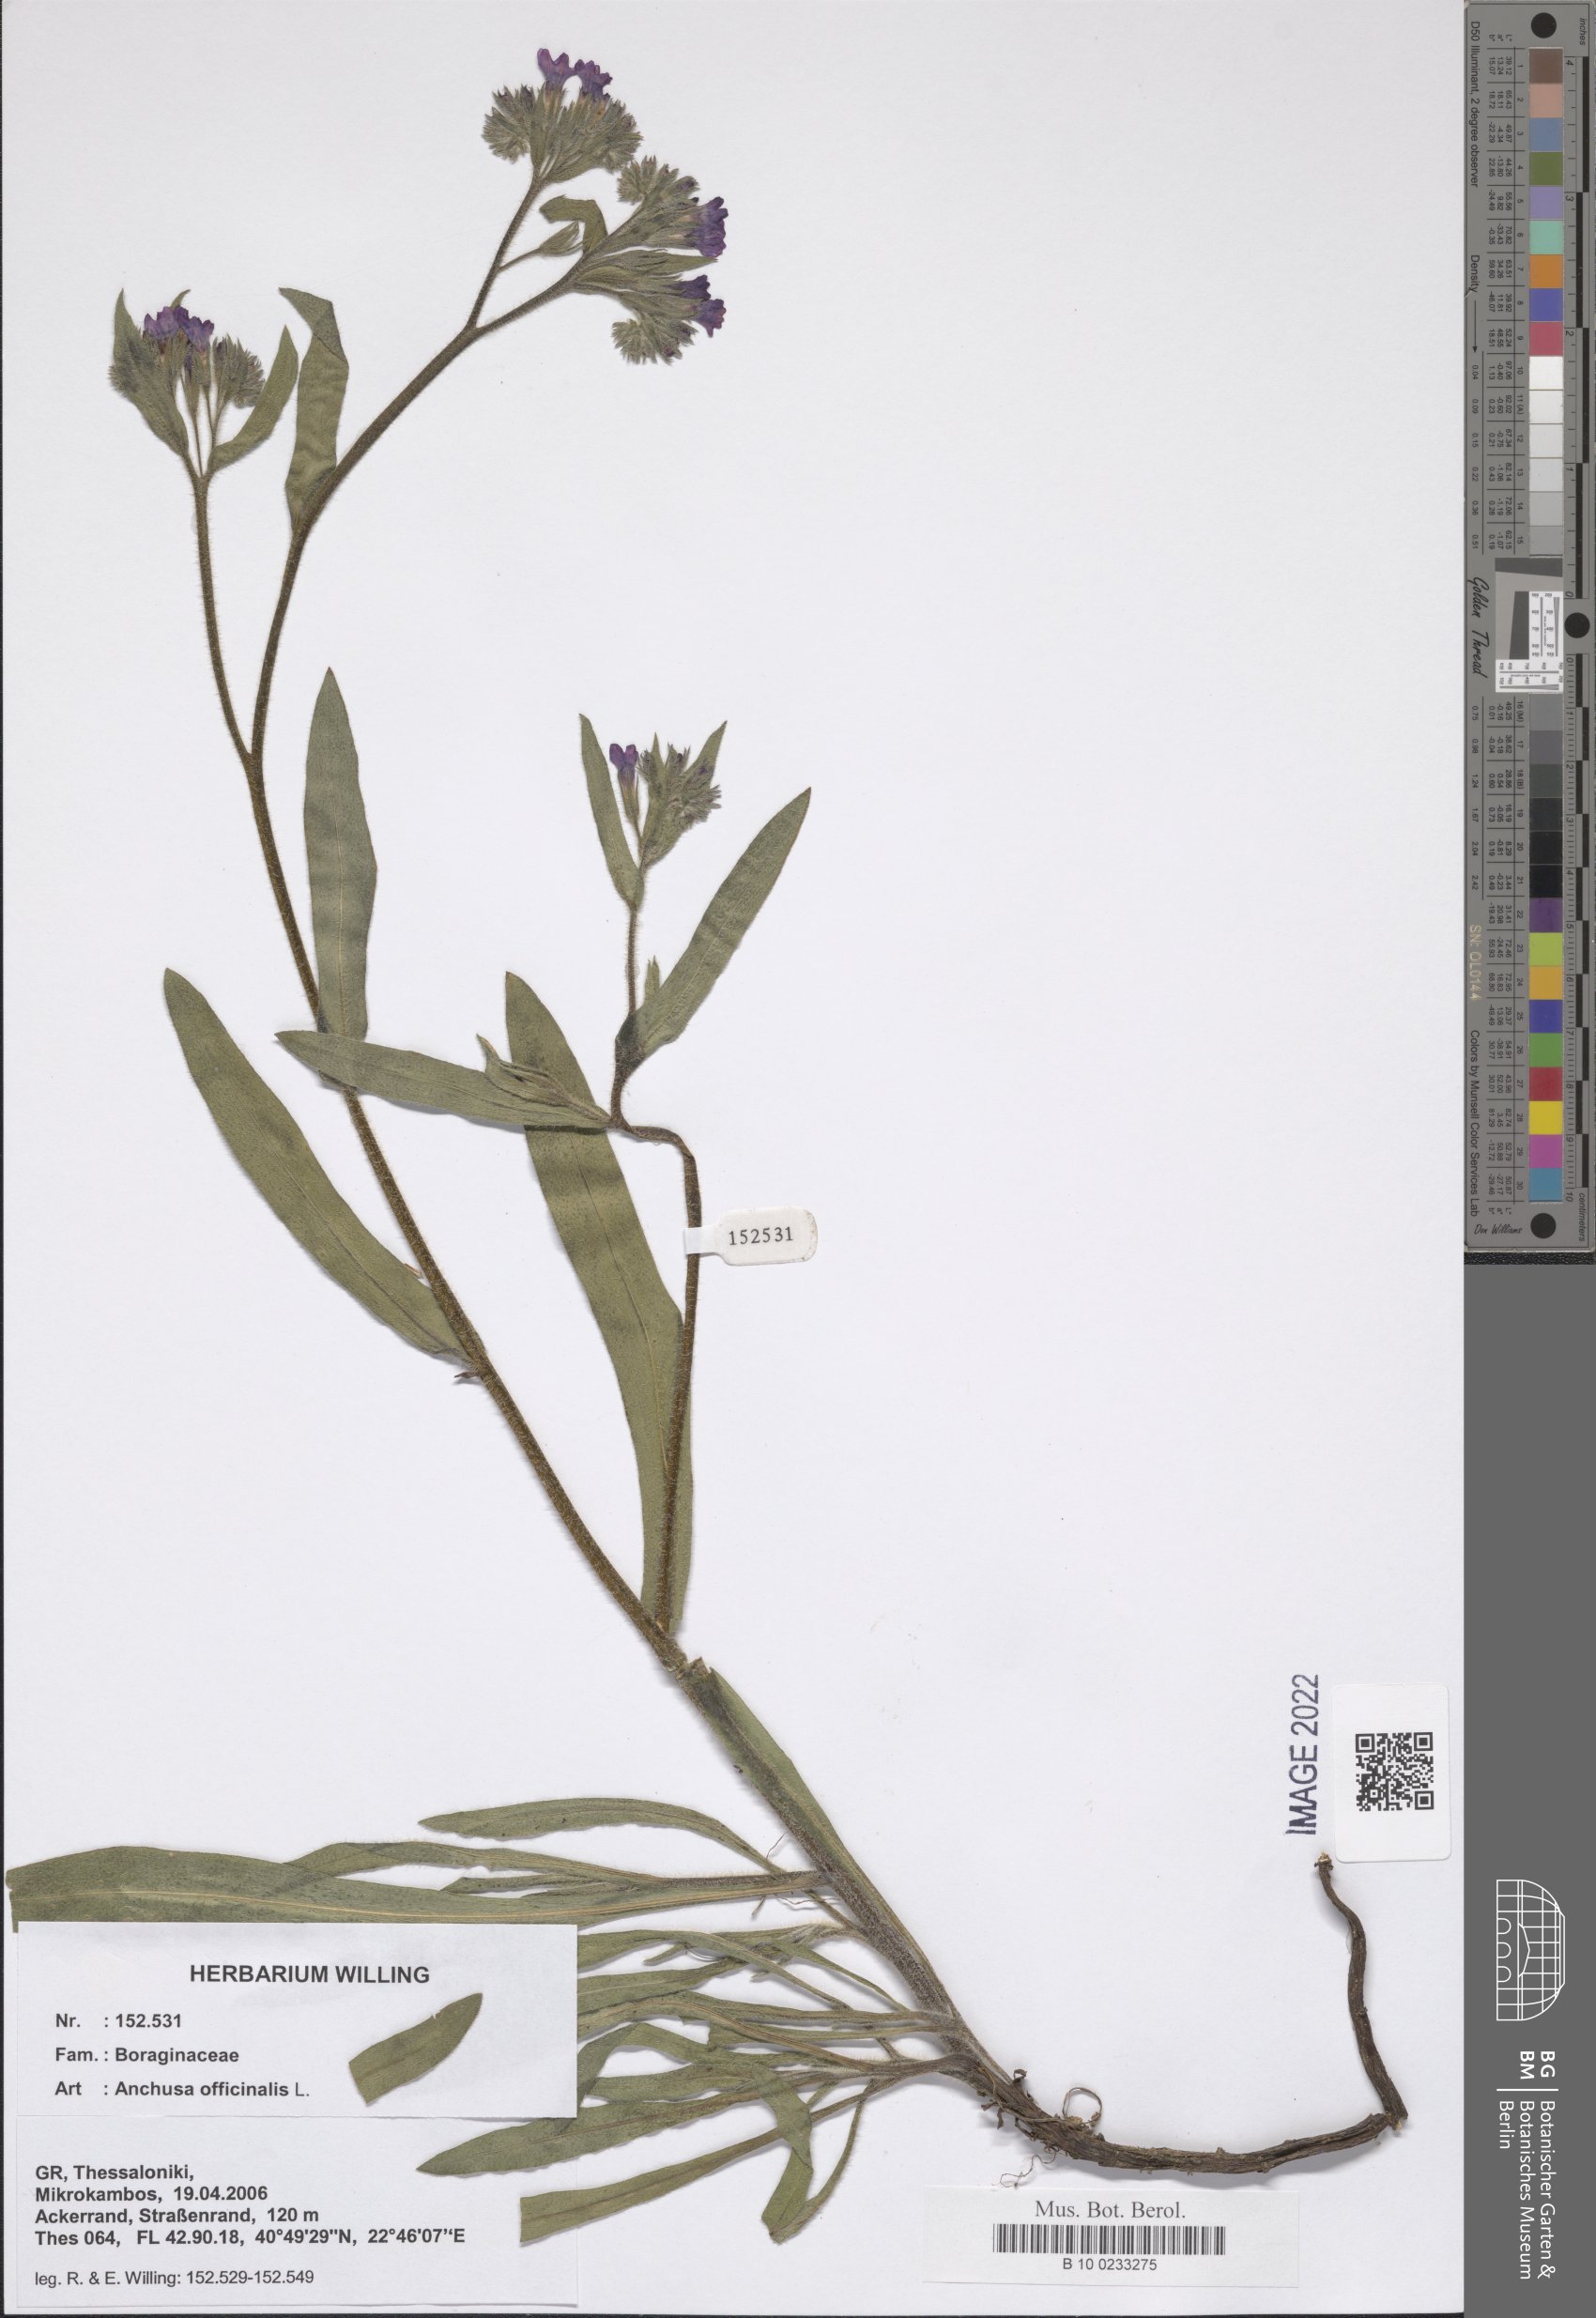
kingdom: Plantae
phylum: Tracheophyta
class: Magnoliopsida
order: Boraginales
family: Boraginaceae
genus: Anchusa
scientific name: Anchusa officinalis
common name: Alkanet
